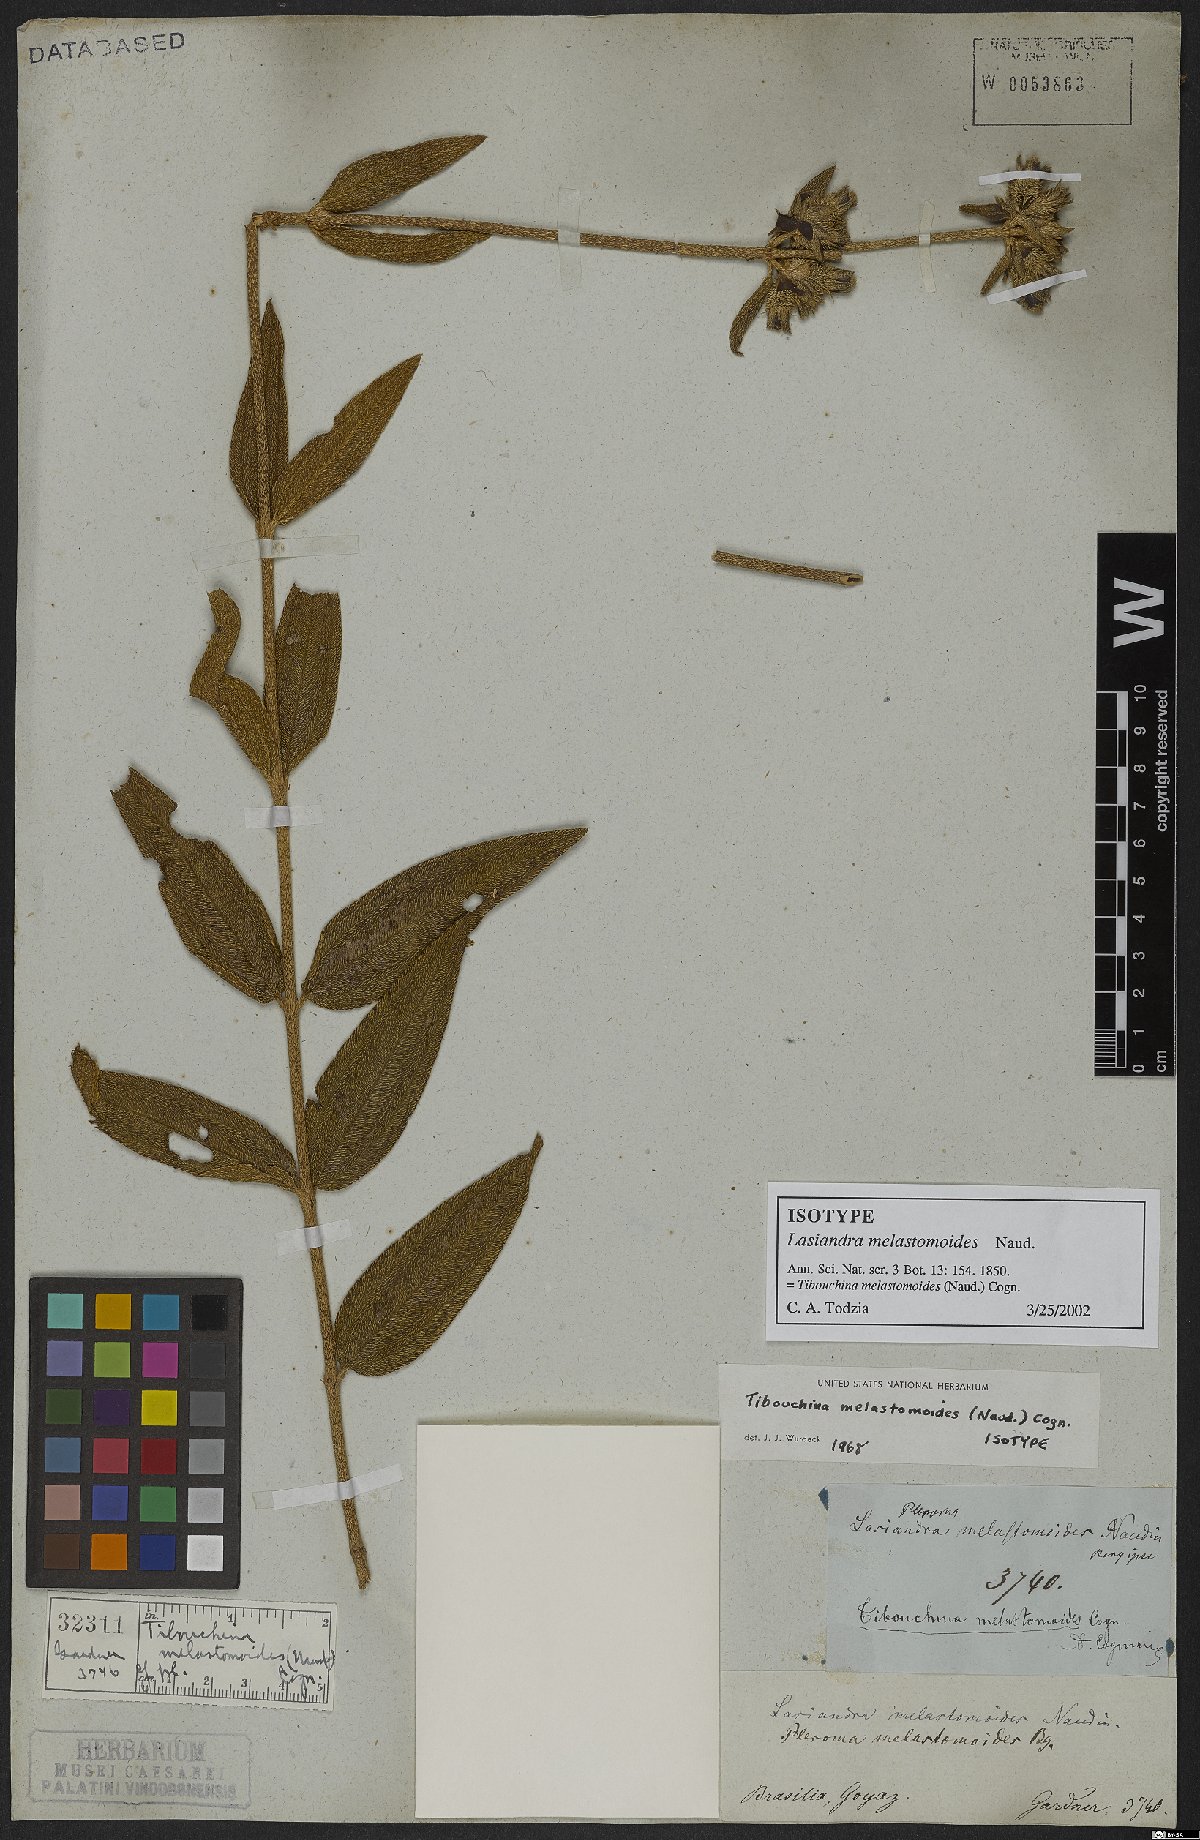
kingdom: Plantae
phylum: Tracheophyta
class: Magnoliopsida
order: Myrtales
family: Melastomataceae
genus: Pleroma
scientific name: Pleroma melastomoides
